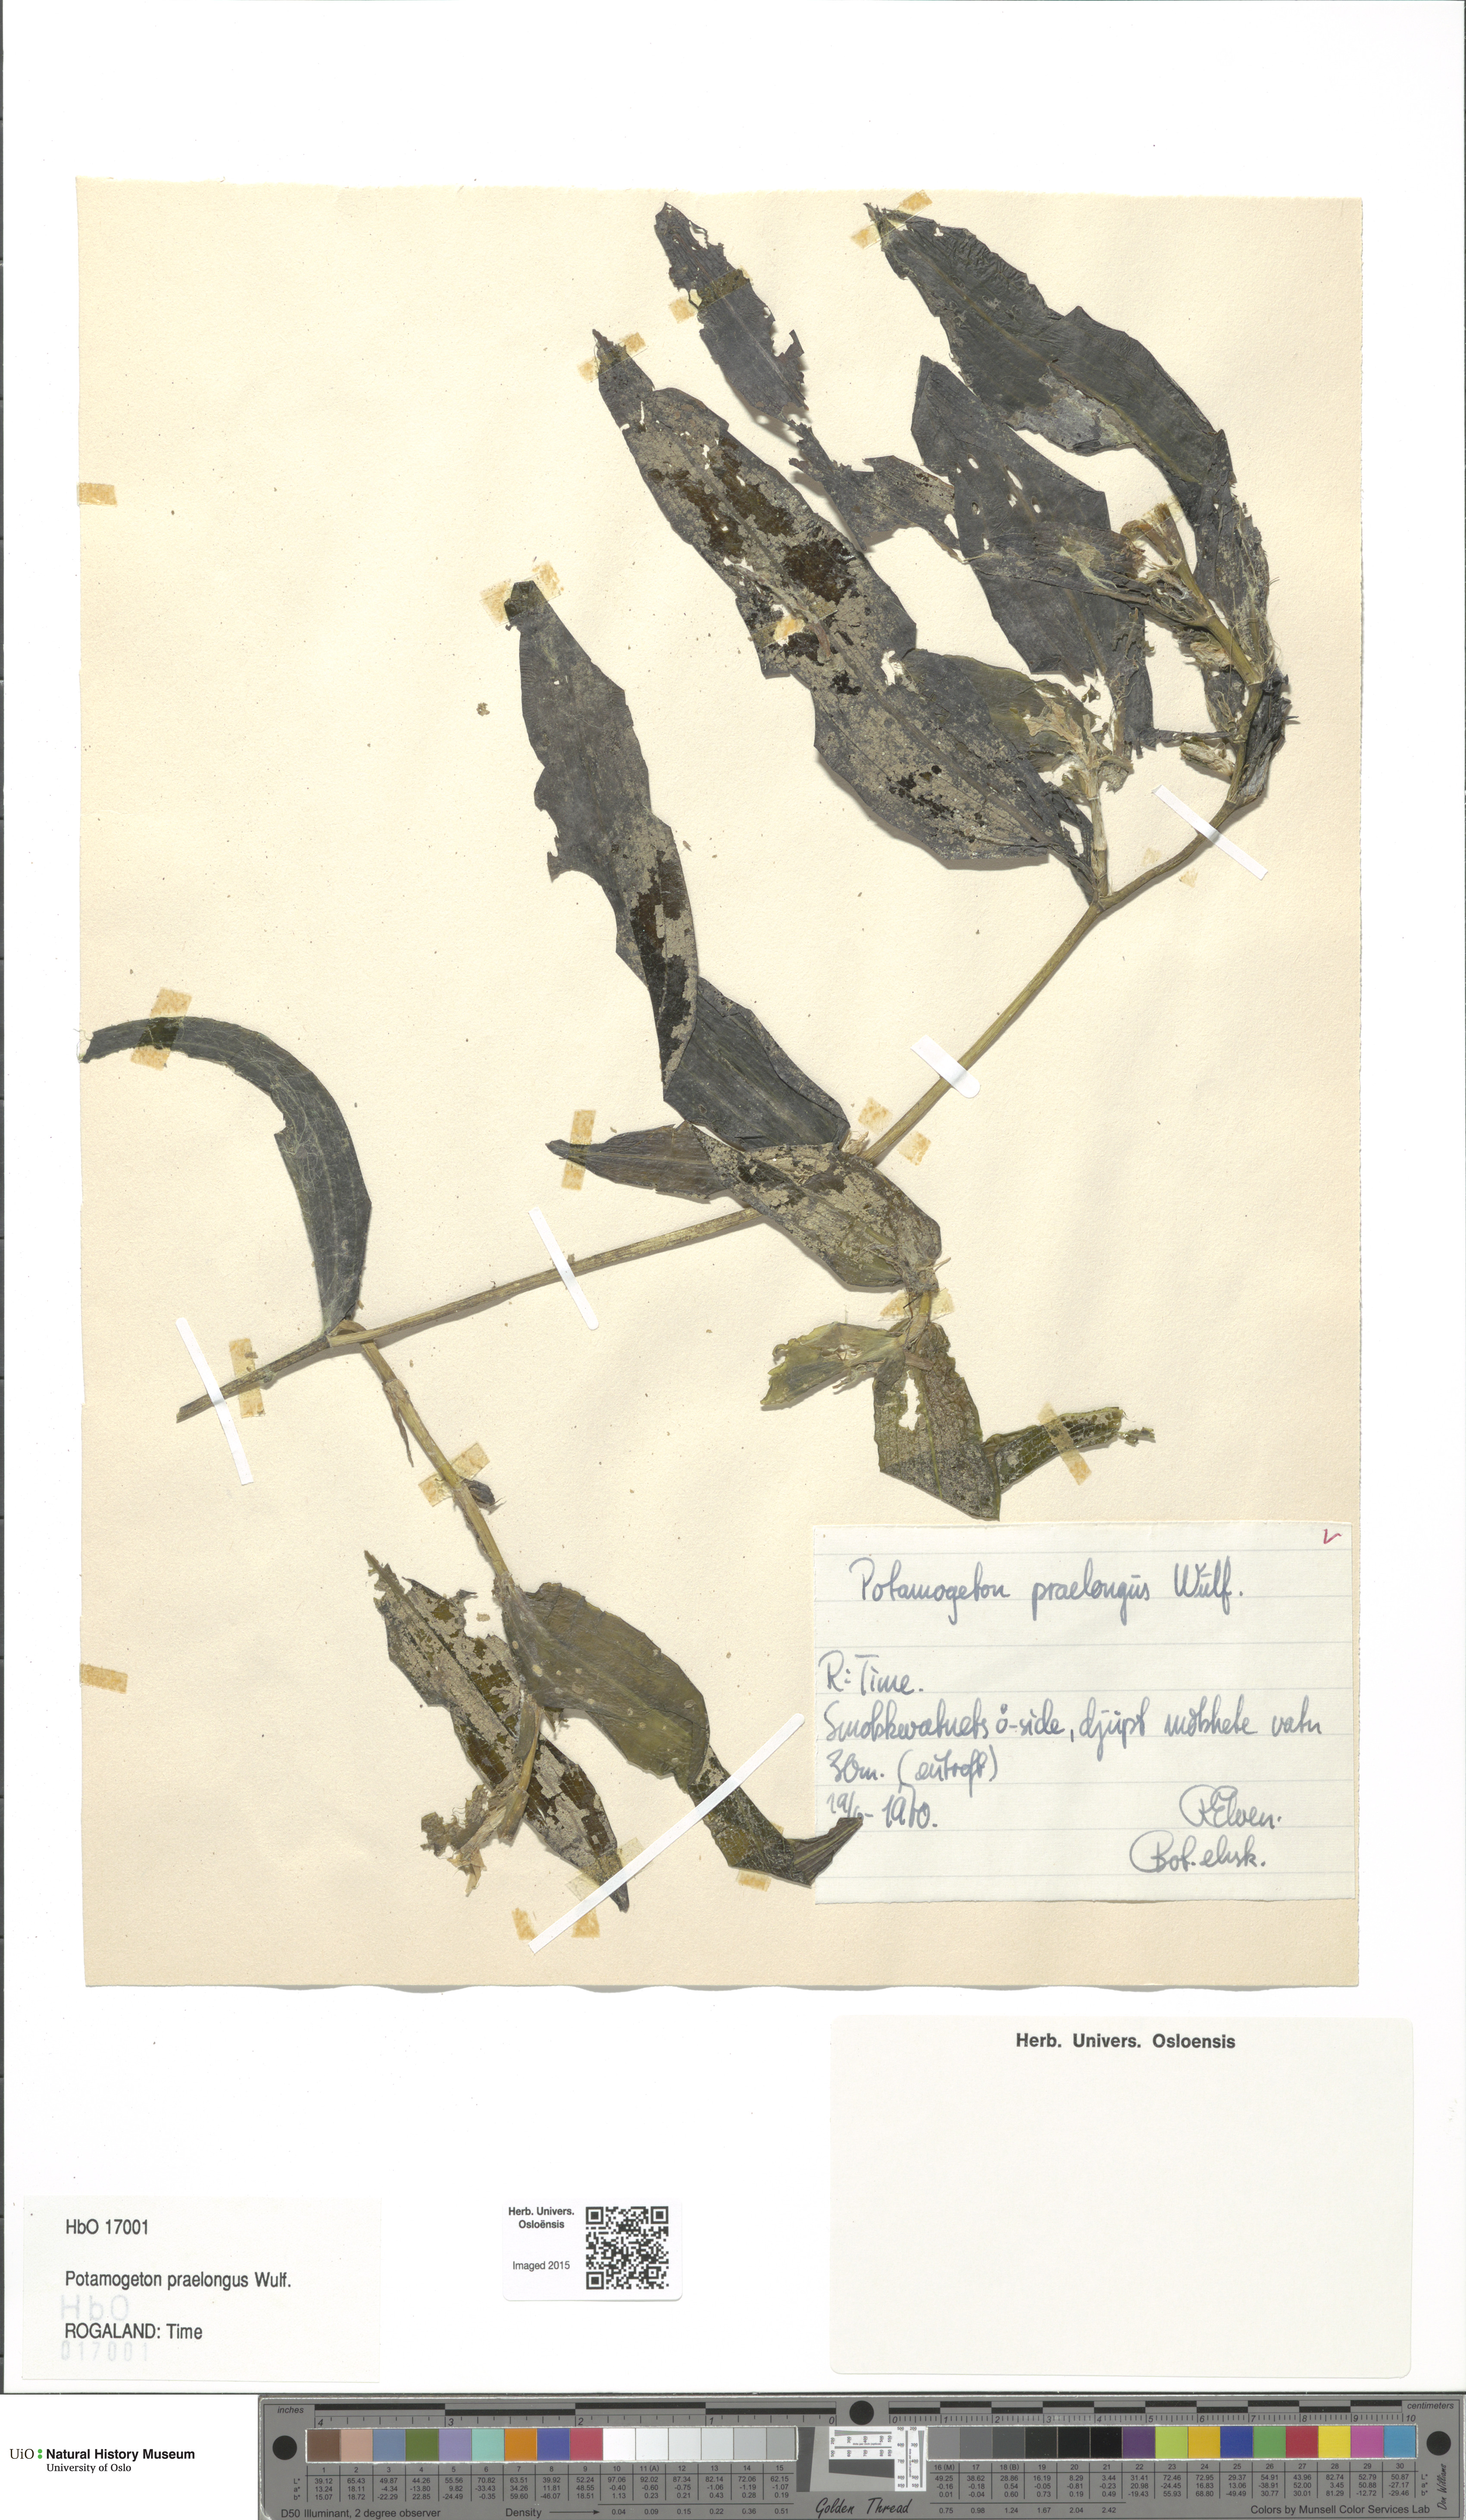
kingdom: Plantae
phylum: Tracheophyta
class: Liliopsida
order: Alismatales
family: Potamogetonaceae
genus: Potamogeton
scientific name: Potamogeton praelongus
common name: Long-stalked pondweed
